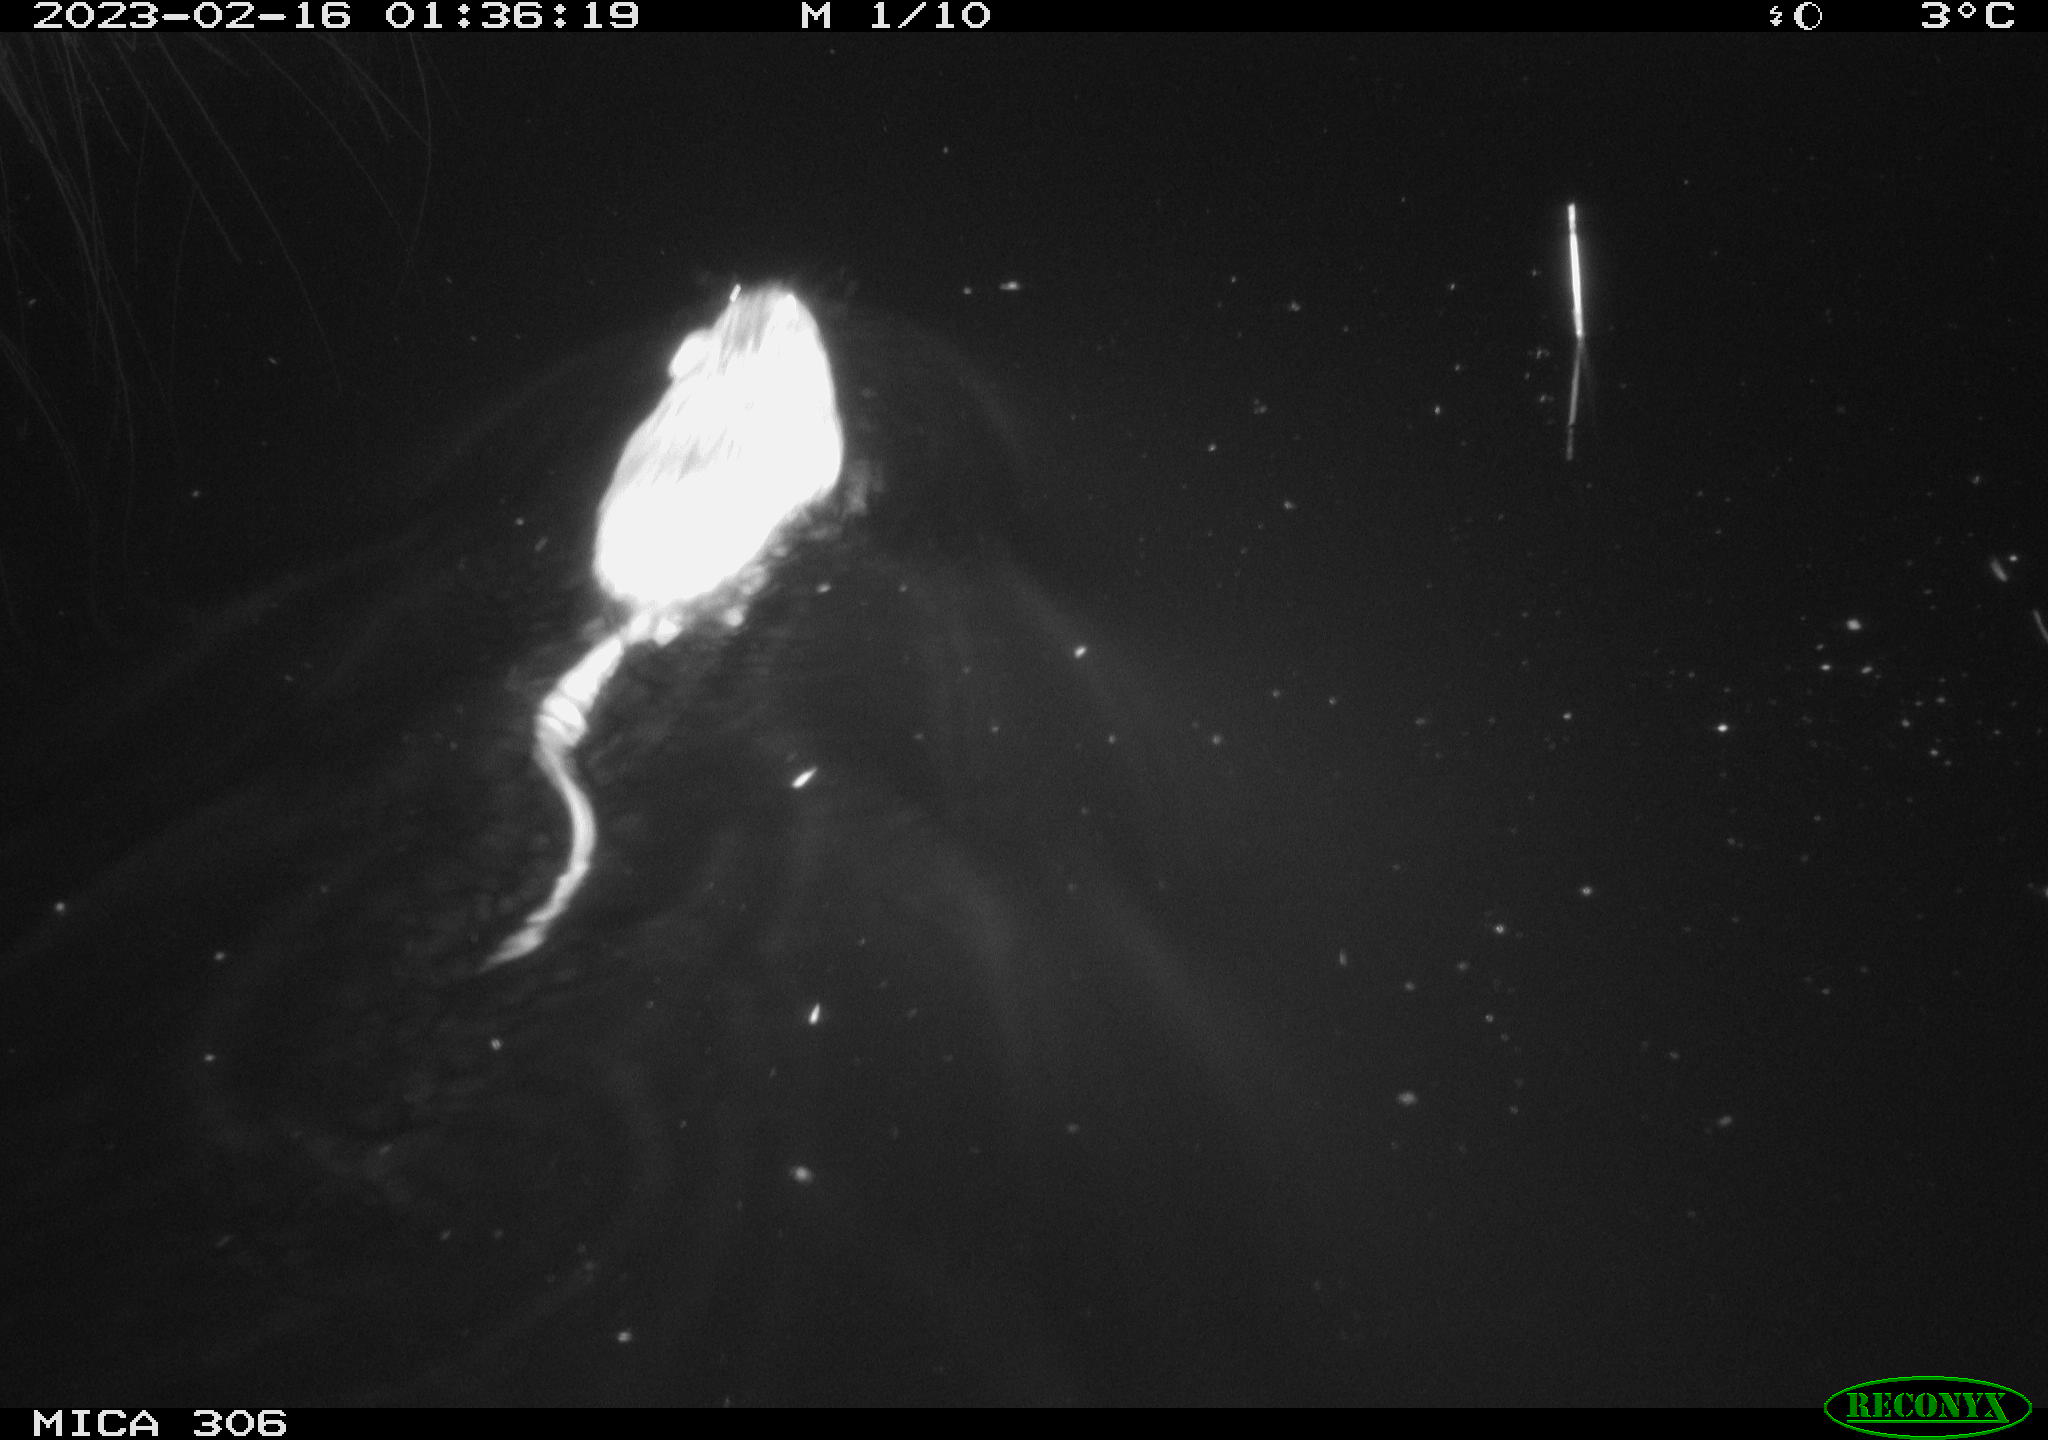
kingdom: Animalia
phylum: Chordata
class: Mammalia
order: Rodentia
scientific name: Rodentia
